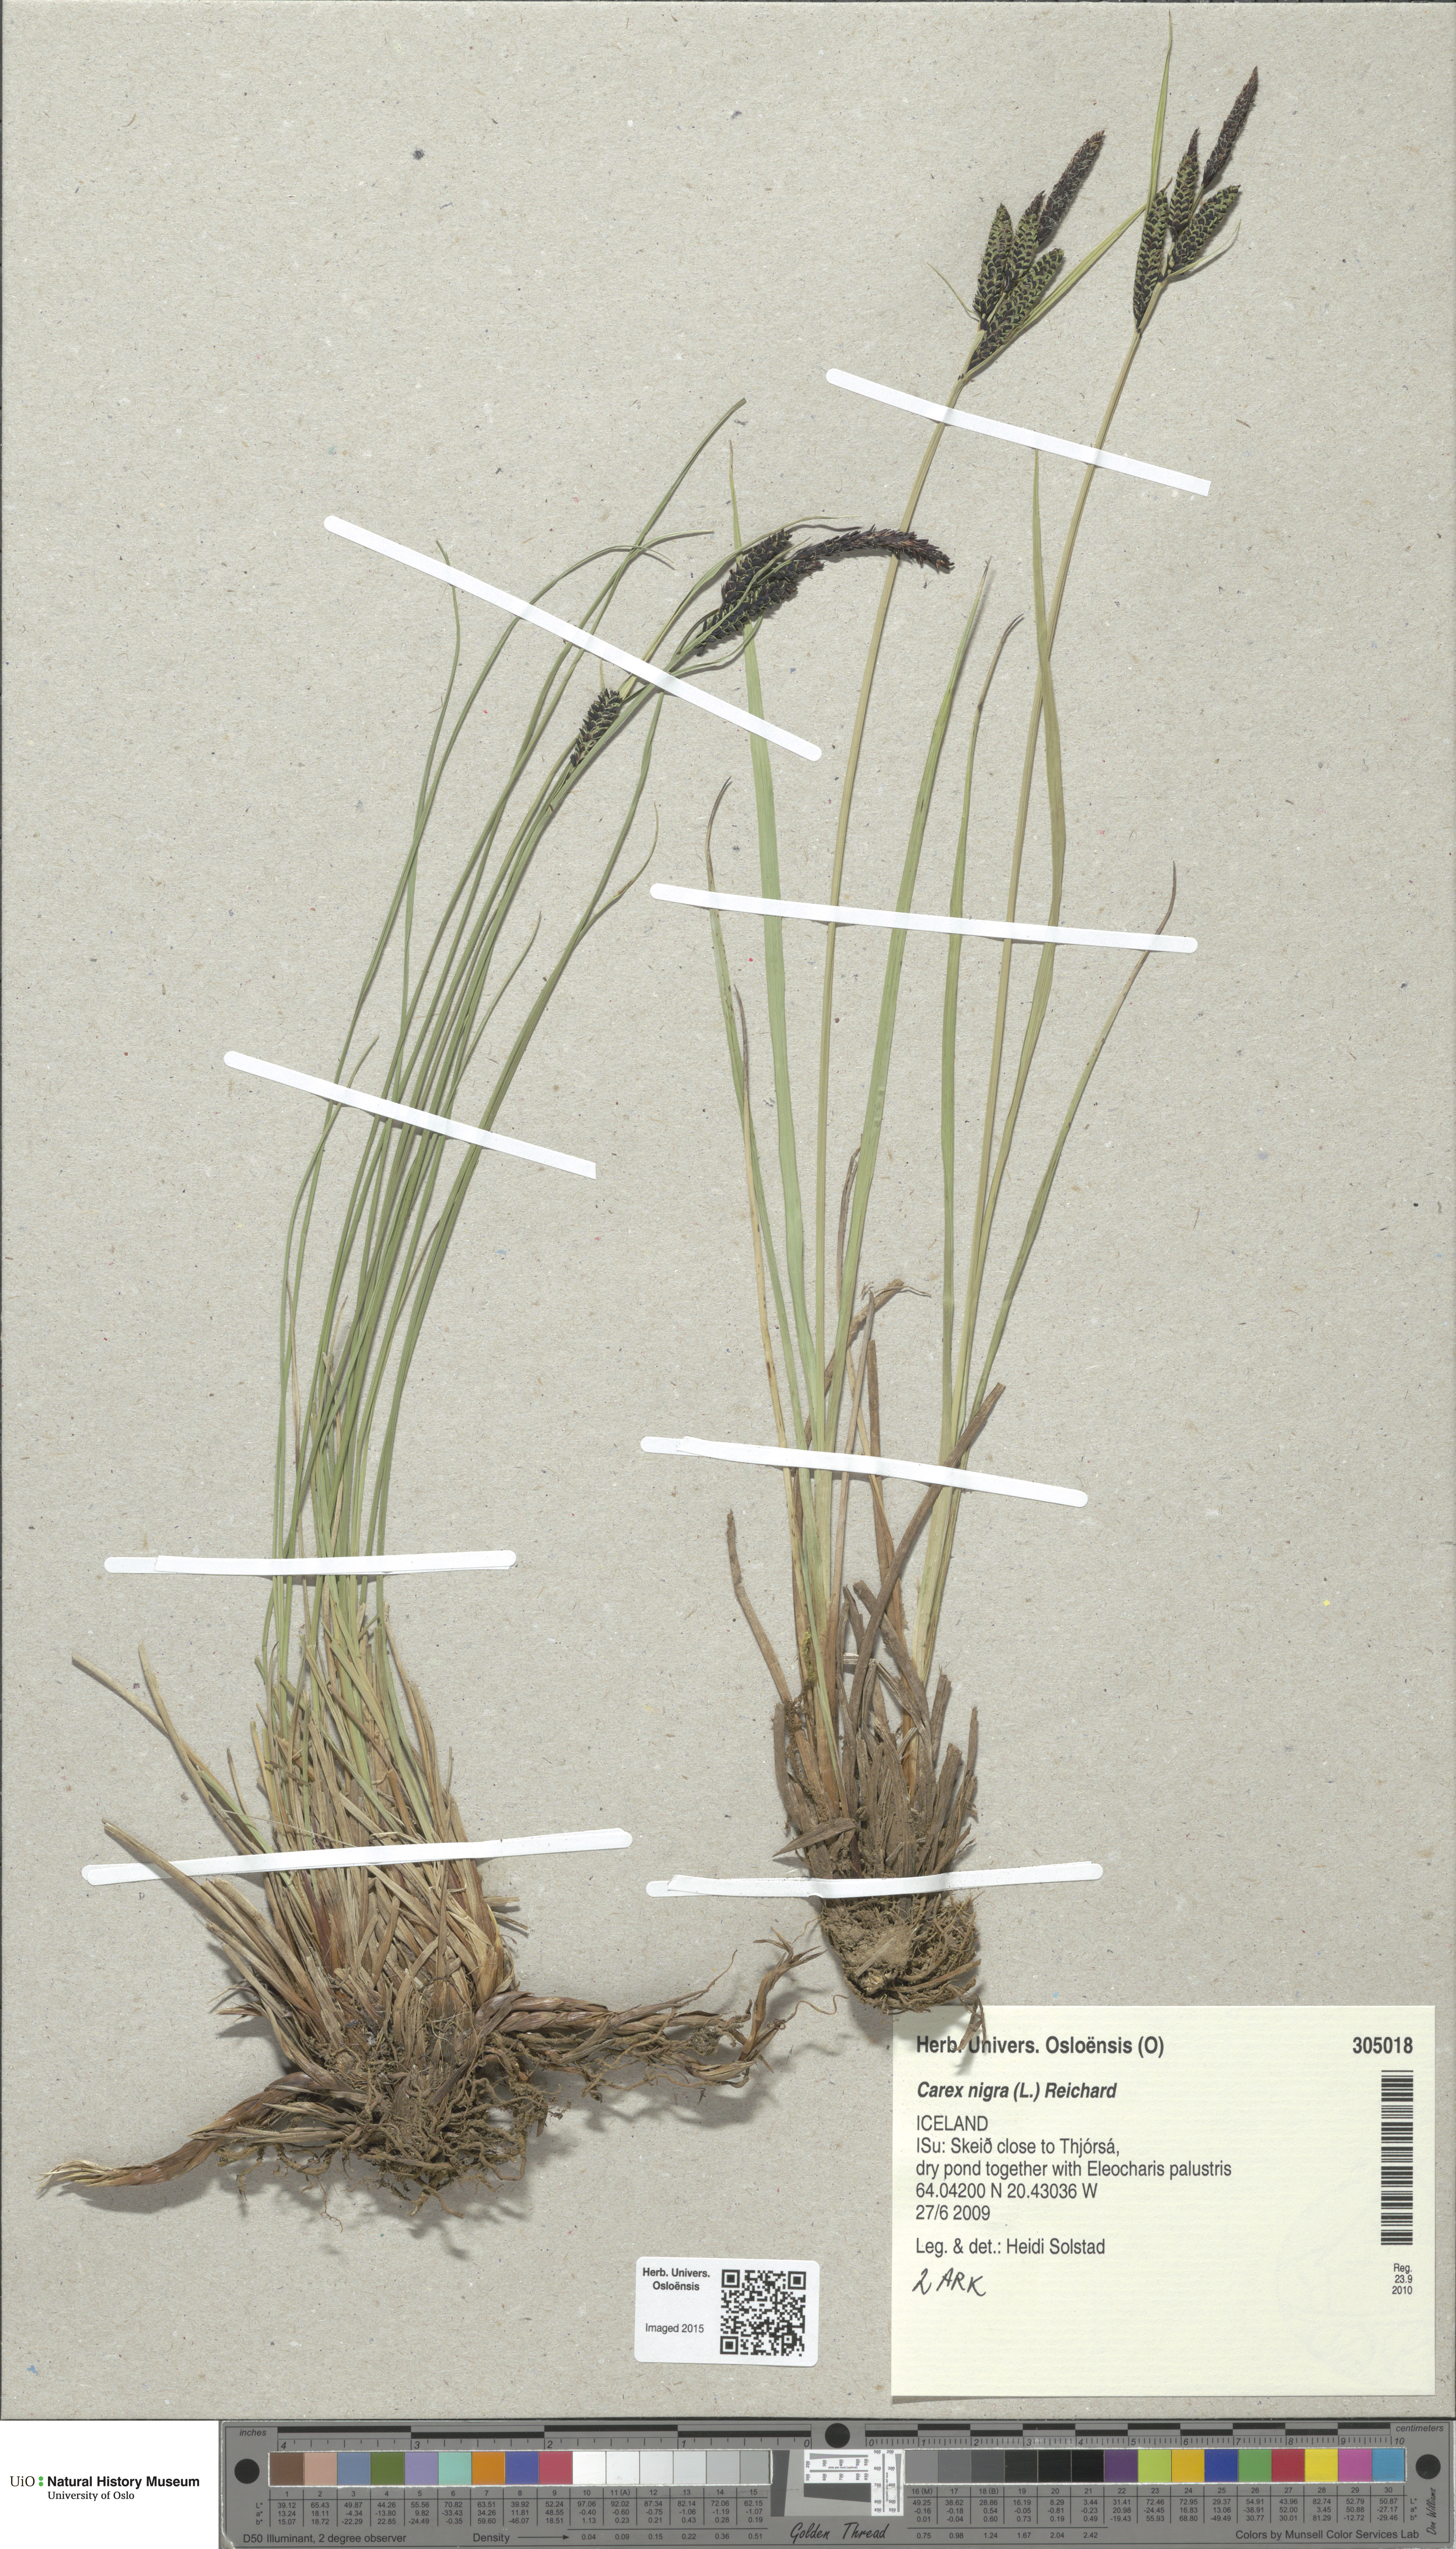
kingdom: Plantae
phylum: Tracheophyta
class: Liliopsida
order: Poales
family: Cyperaceae
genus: Carex
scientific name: Carex nigra
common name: Common sedge
